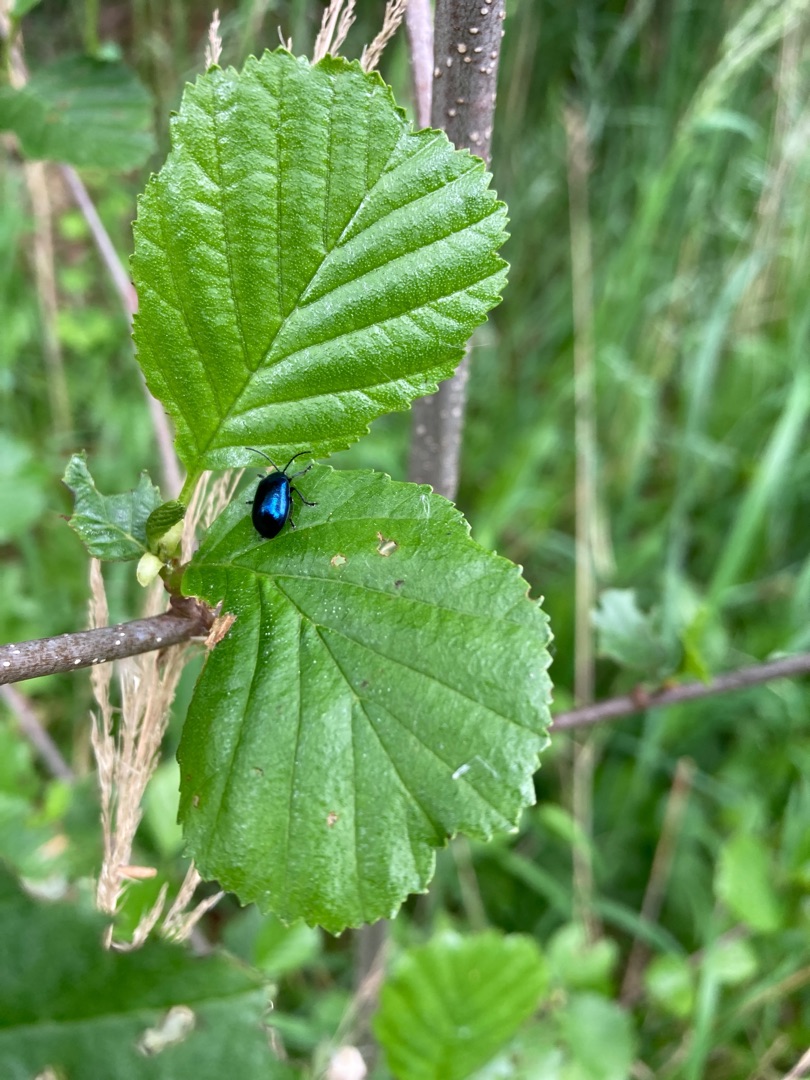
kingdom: Animalia
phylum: Arthropoda
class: Insecta
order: Coleoptera
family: Chrysomelidae
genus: Agelastica
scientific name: Agelastica alni
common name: Ellebladbille
